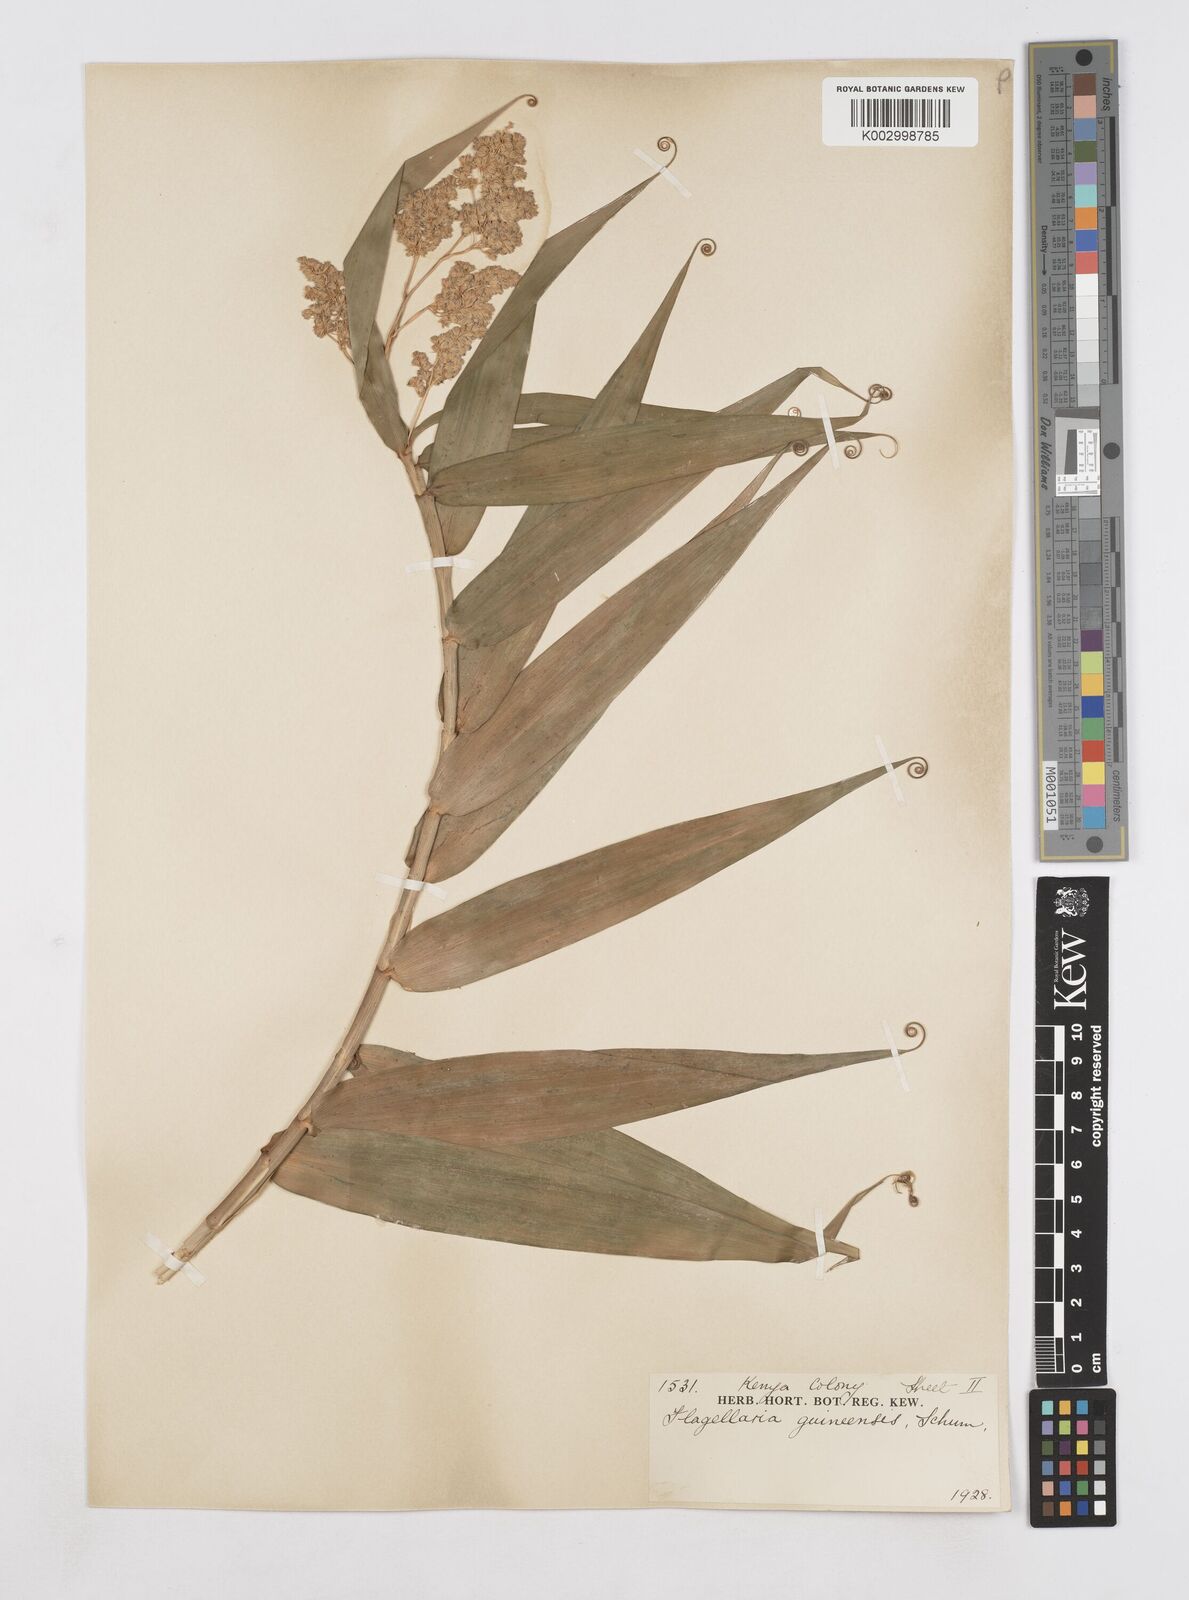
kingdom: Plantae
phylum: Tracheophyta
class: Liliopsida
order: Poales
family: Flagellariaceae
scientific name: Flagellariaceae
